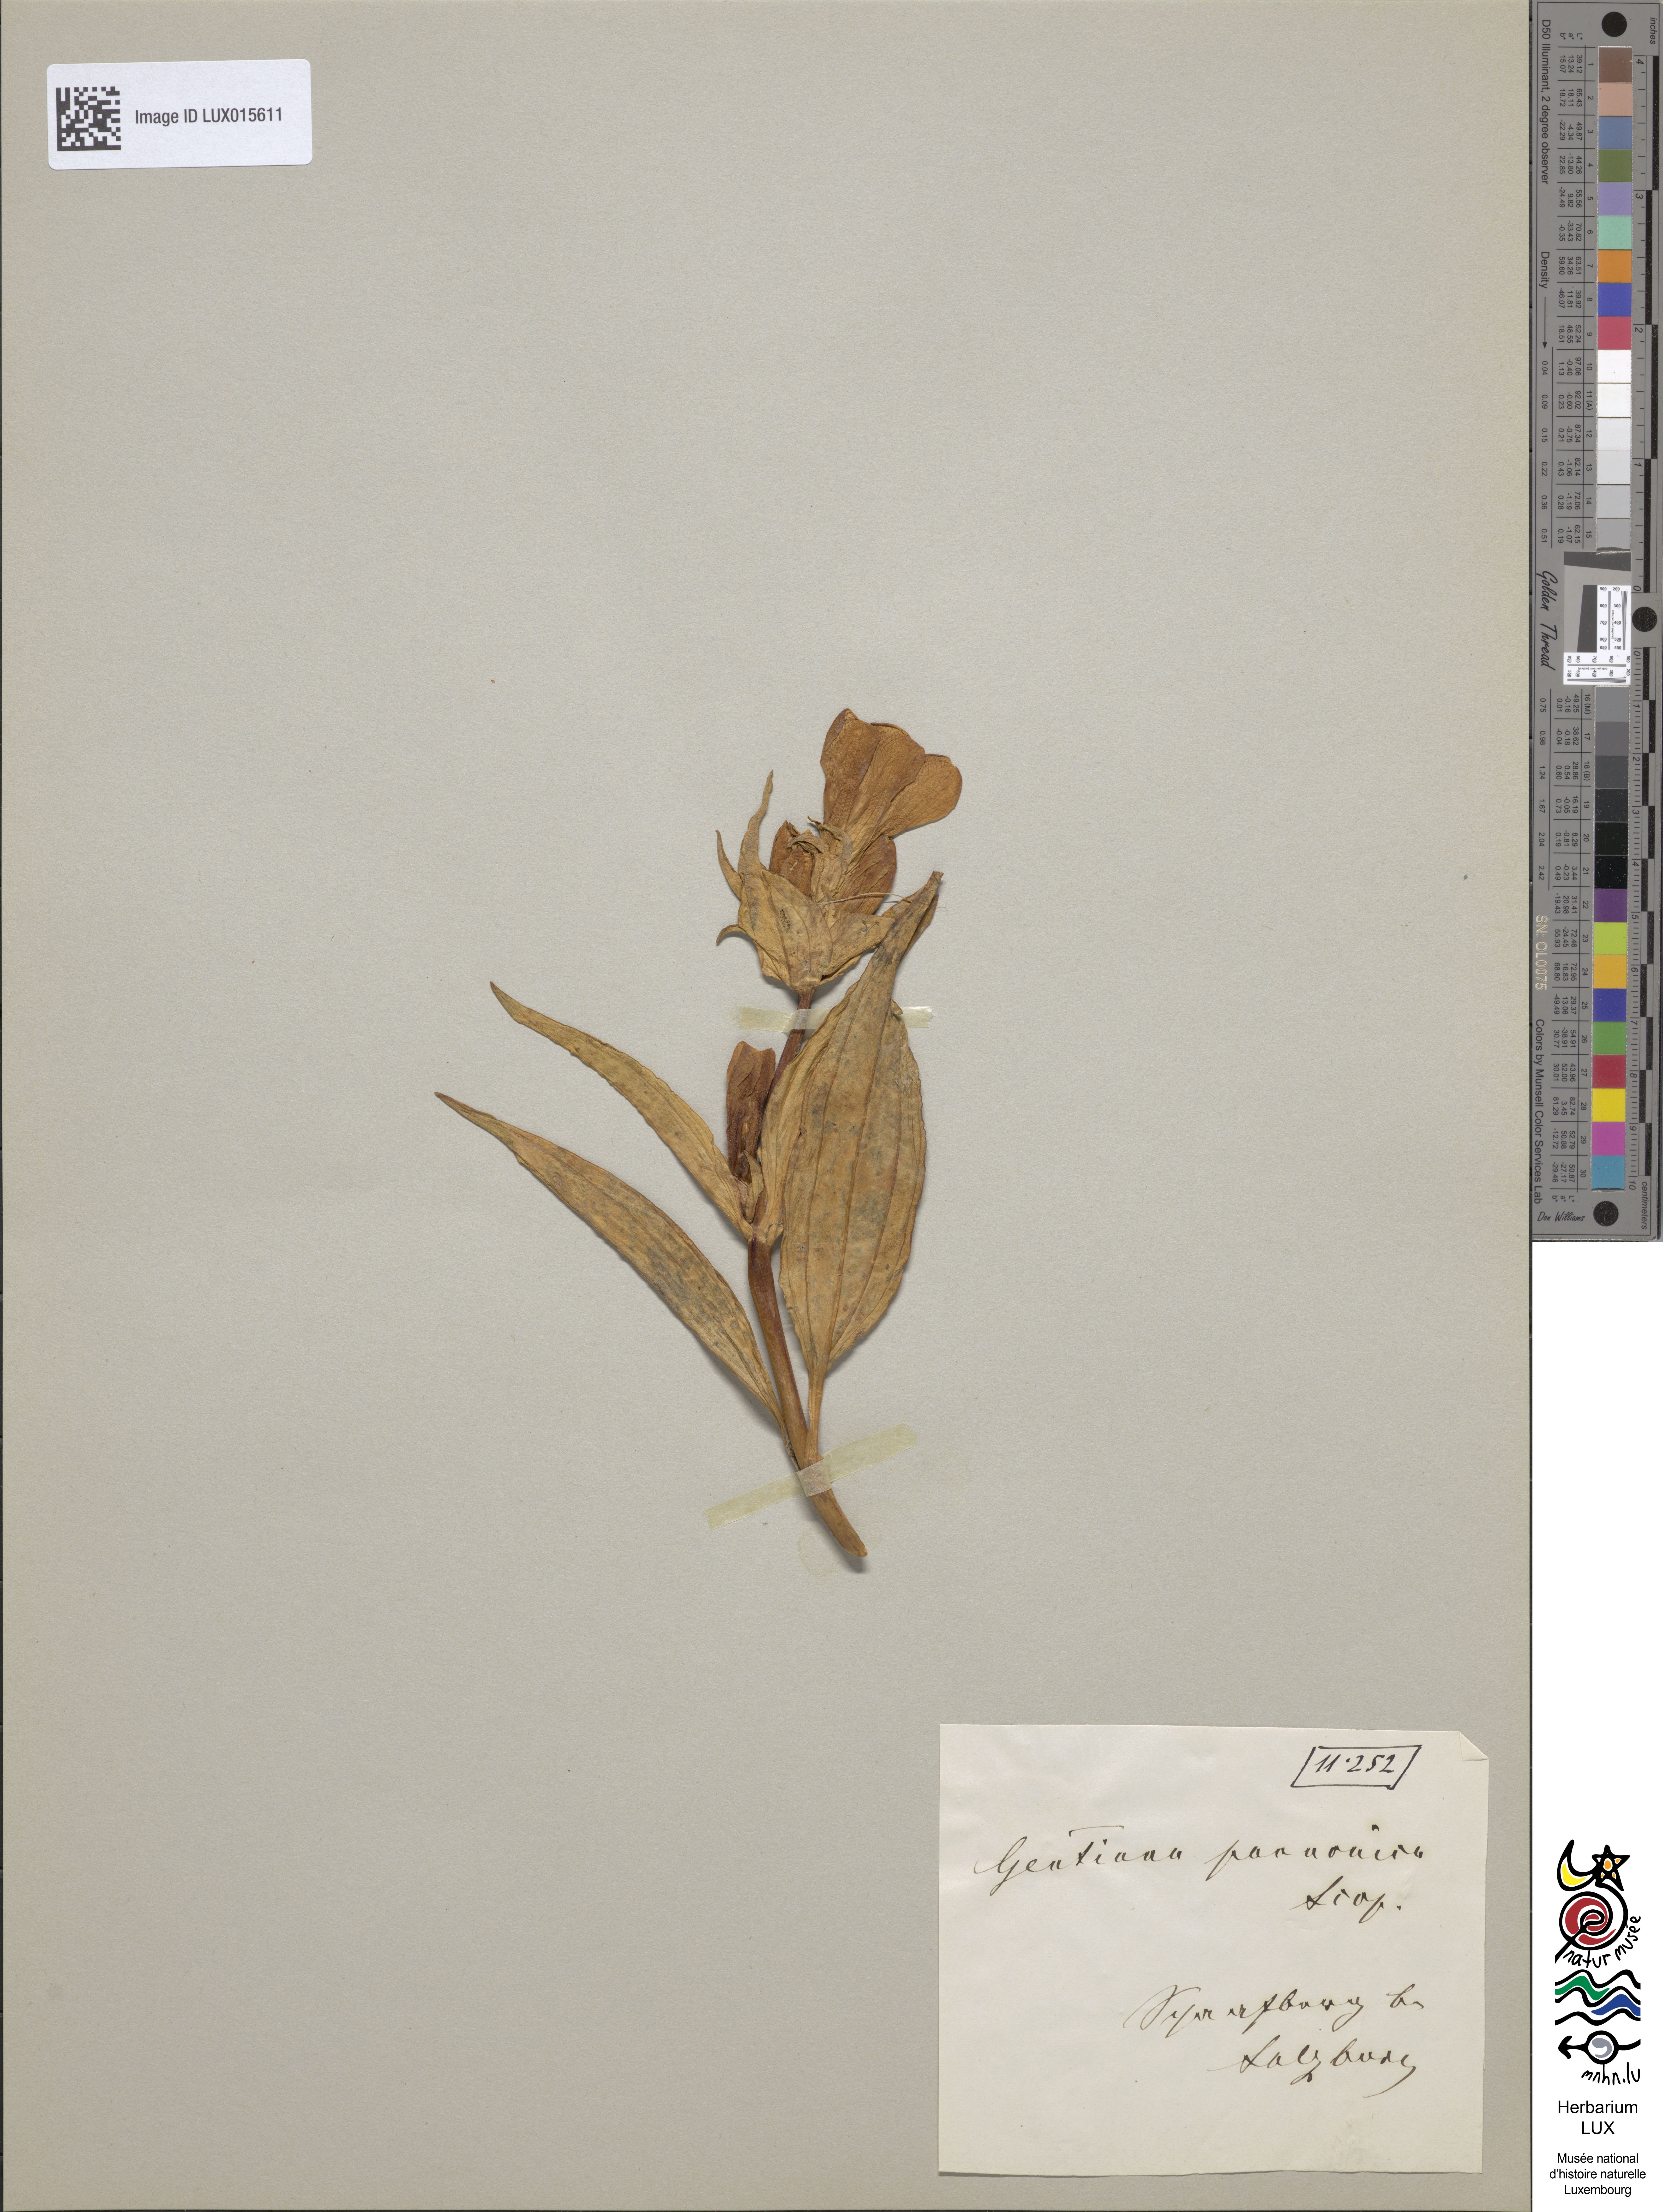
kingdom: Plantae
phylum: Tracheophyta
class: Magnoliopsida
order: Gentianales
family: Gentianaceae
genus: Gentiana
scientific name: Gentiana pannonica
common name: Hungarian gentian
